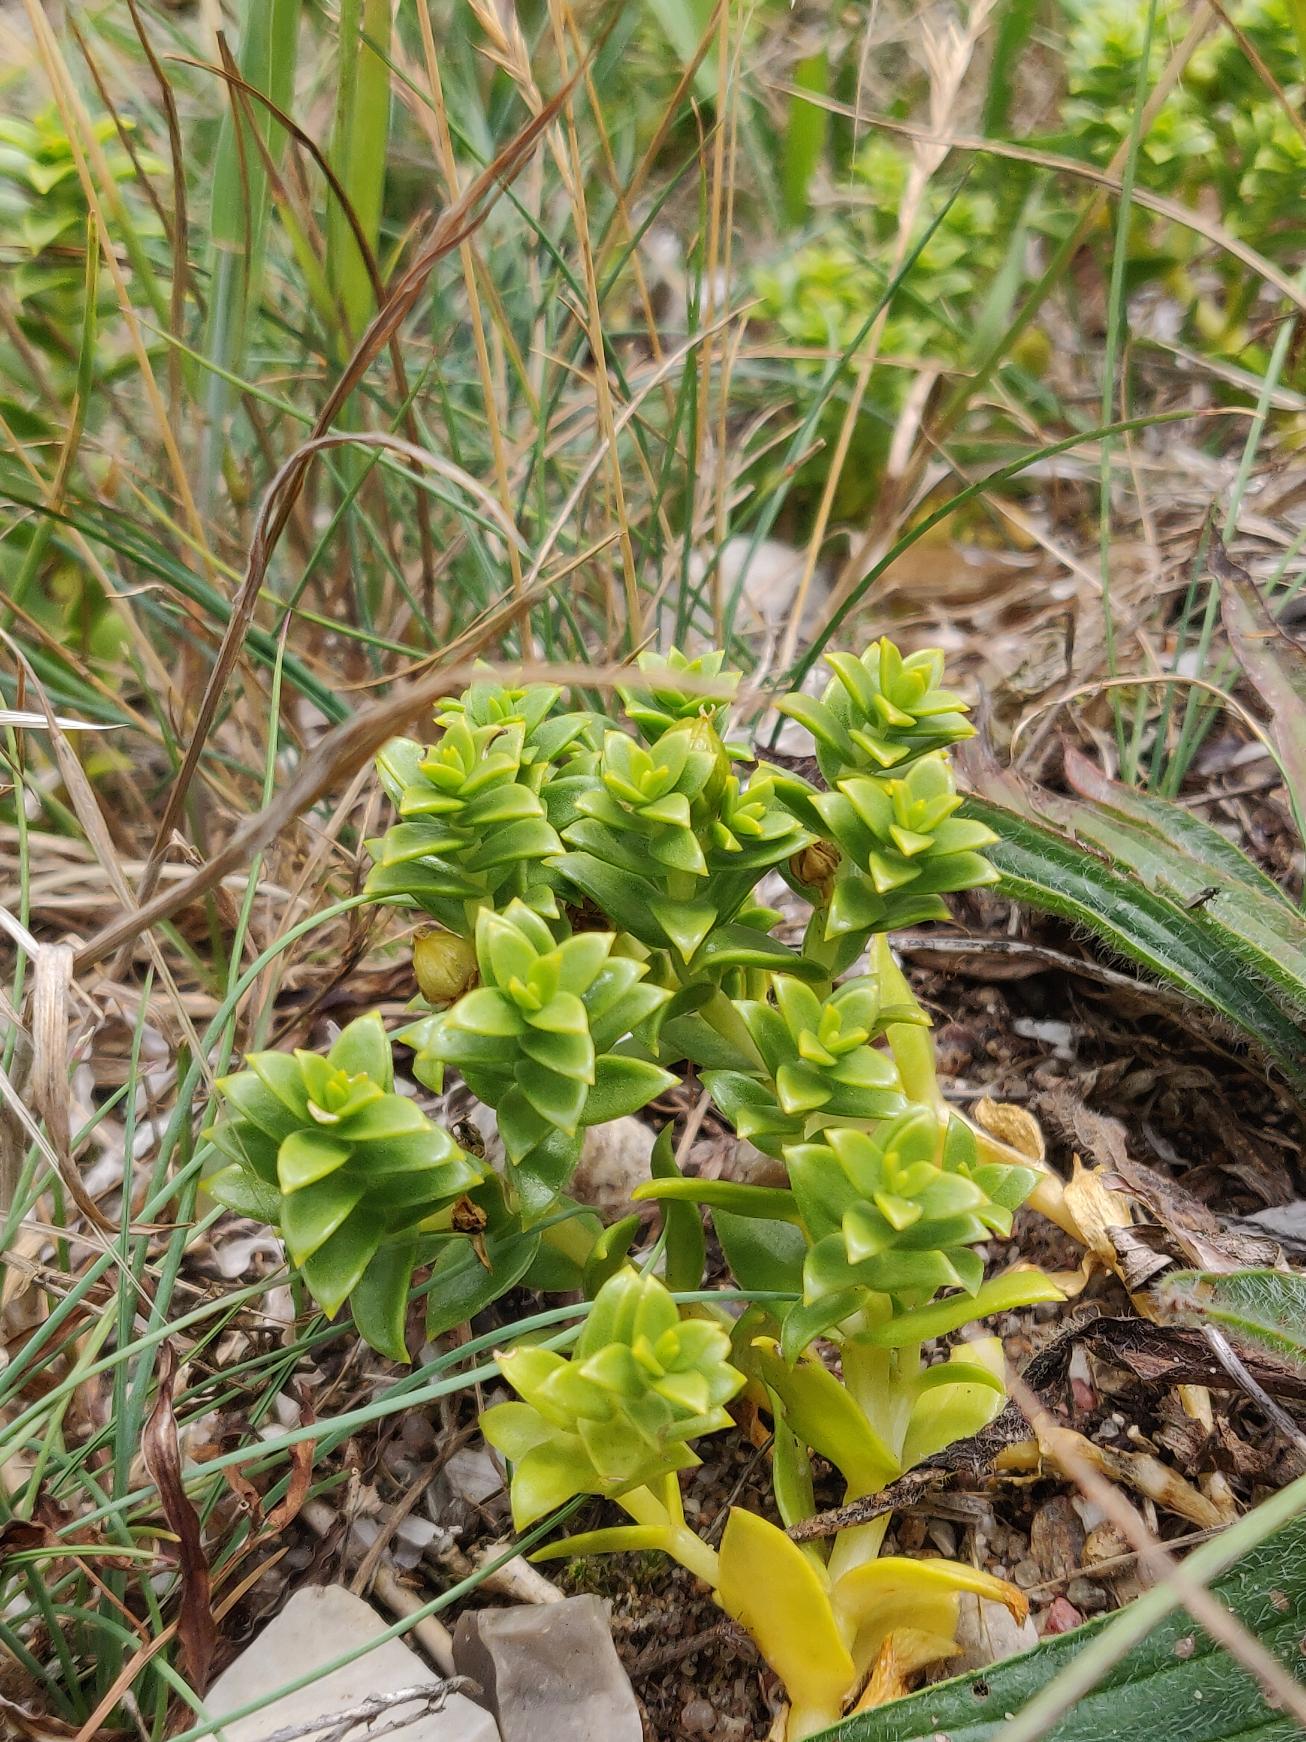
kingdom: Plantae
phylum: Tracheophyta
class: Magnoliopsida
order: Caryophyllales
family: Caryophyllaceae
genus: Honckenya
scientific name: Honckenya peploides
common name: Strandarve
